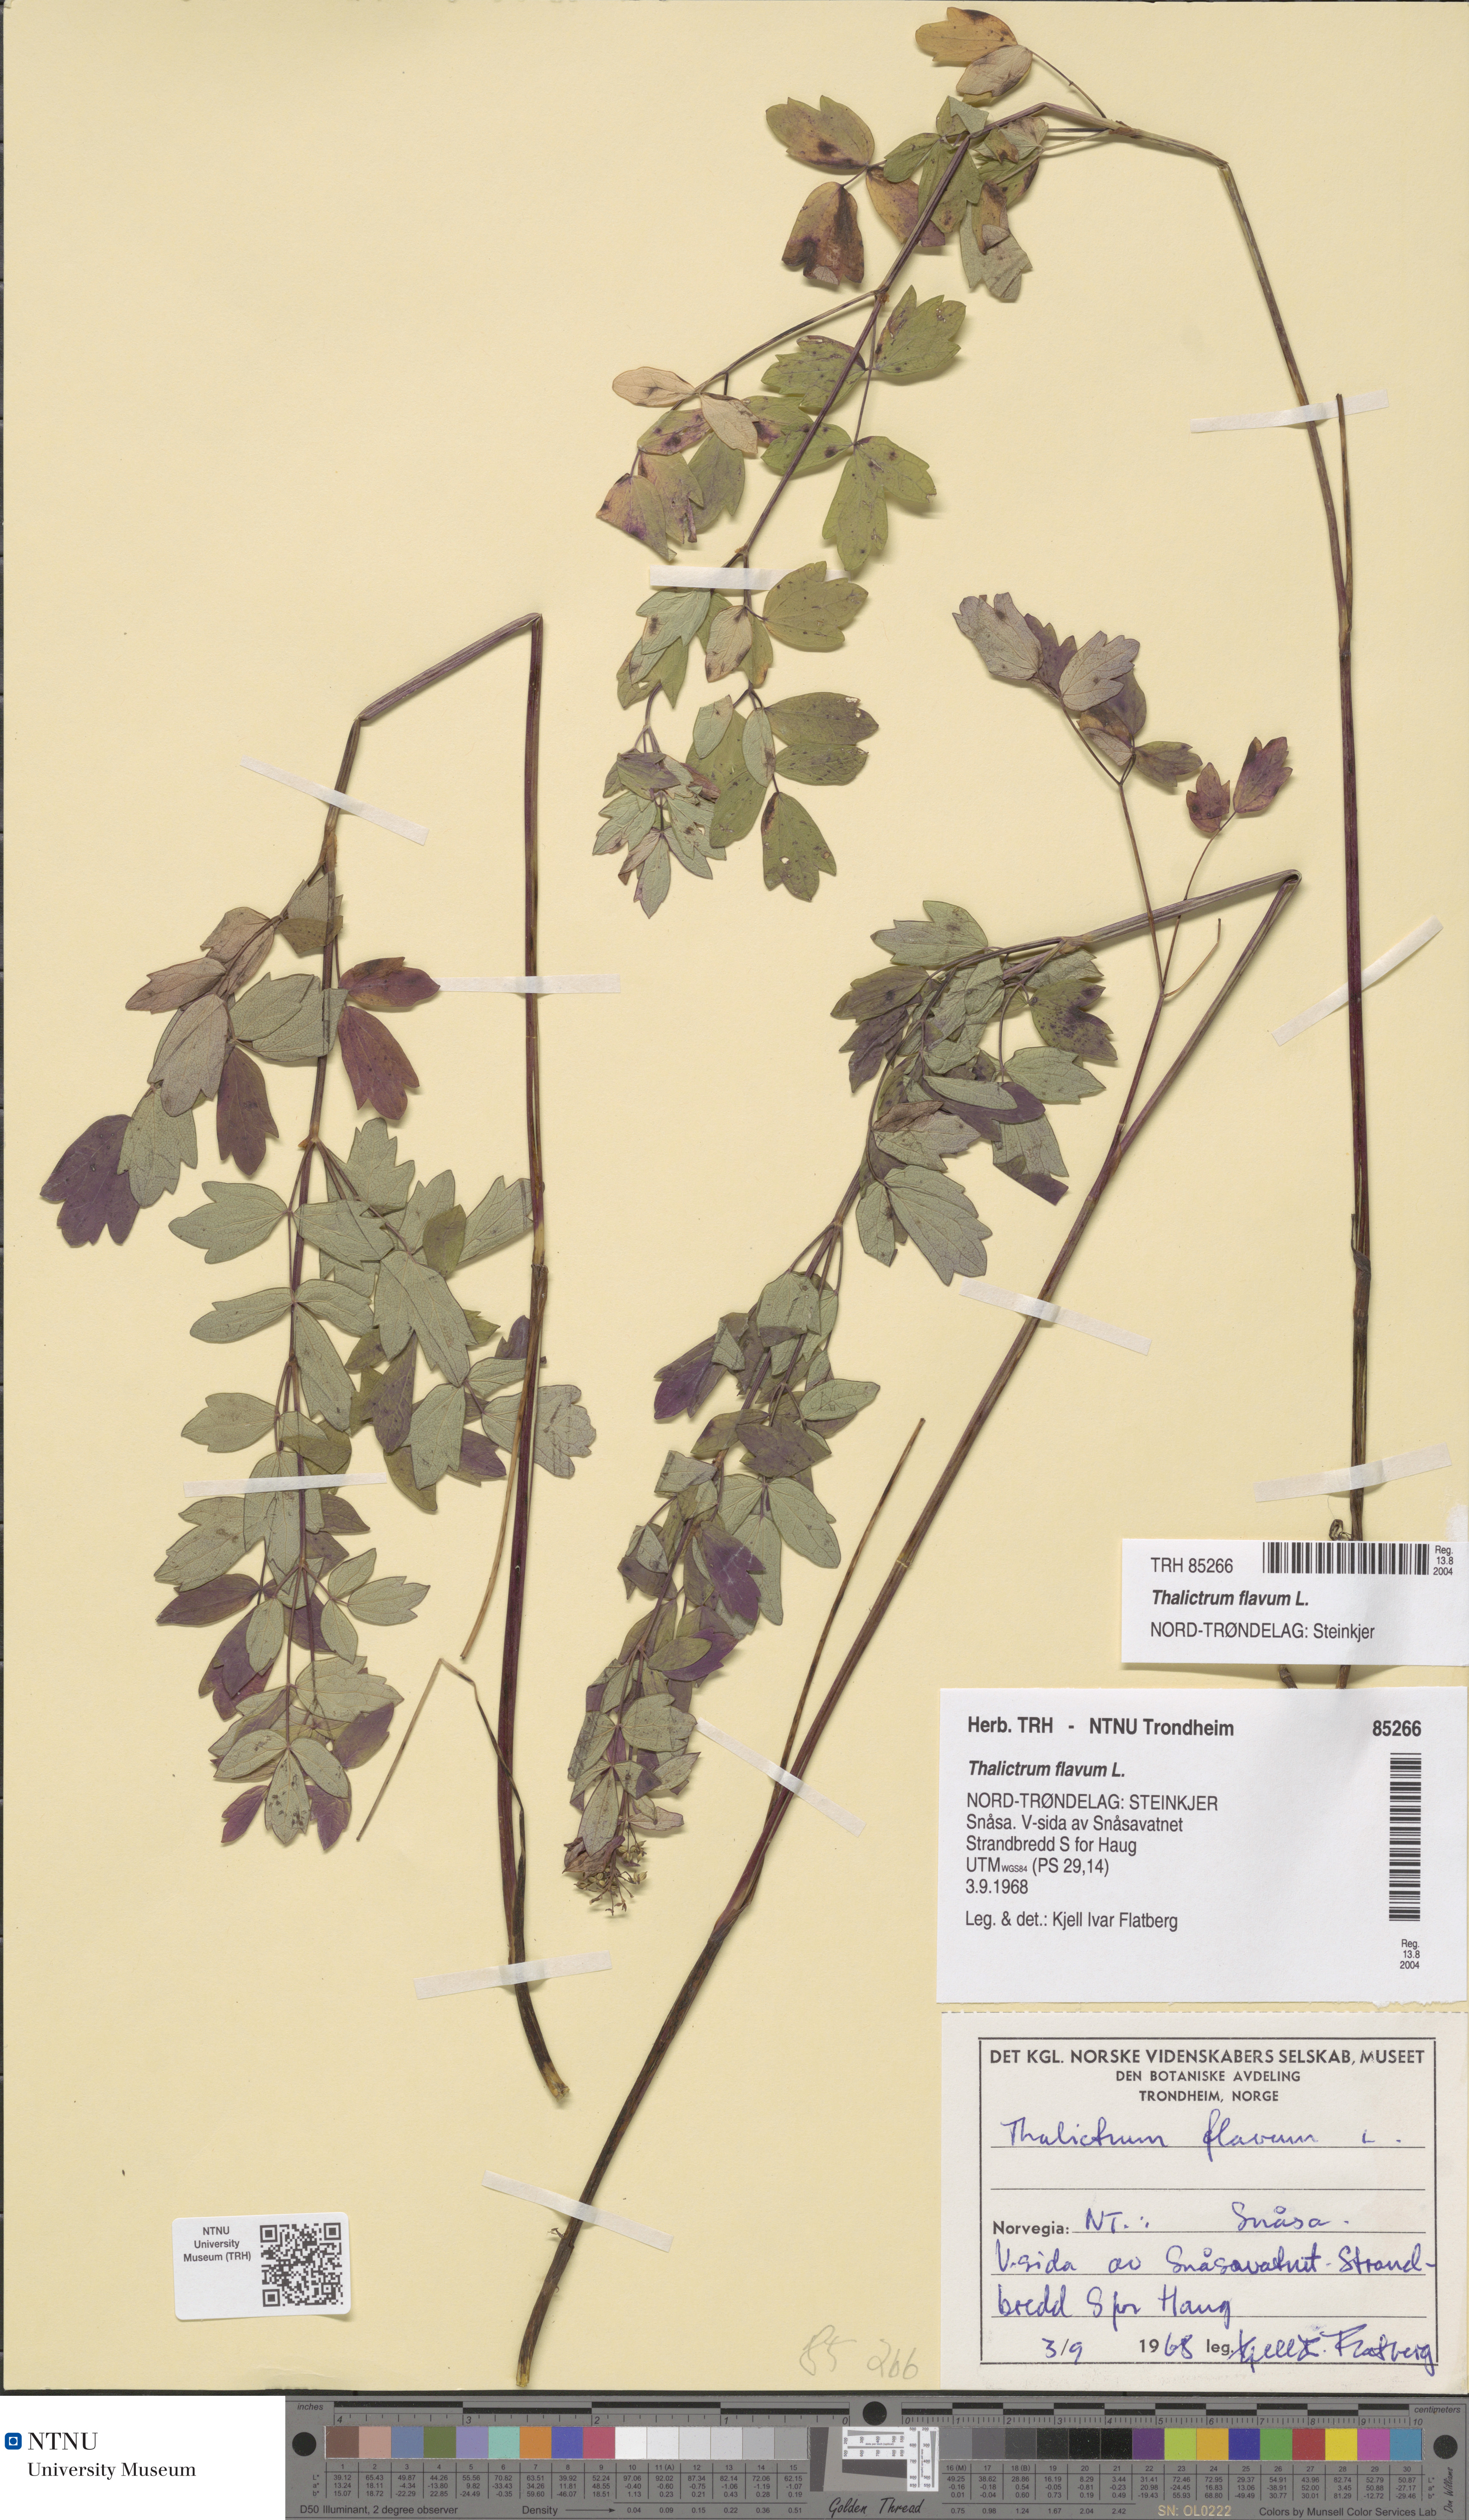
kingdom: Plantae
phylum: Tracheophyta
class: Magnoliopsida
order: Ranunculales
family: Ranunculaceae
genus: Thalictrum
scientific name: Thalictrum flavum
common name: Common meadow-rue
